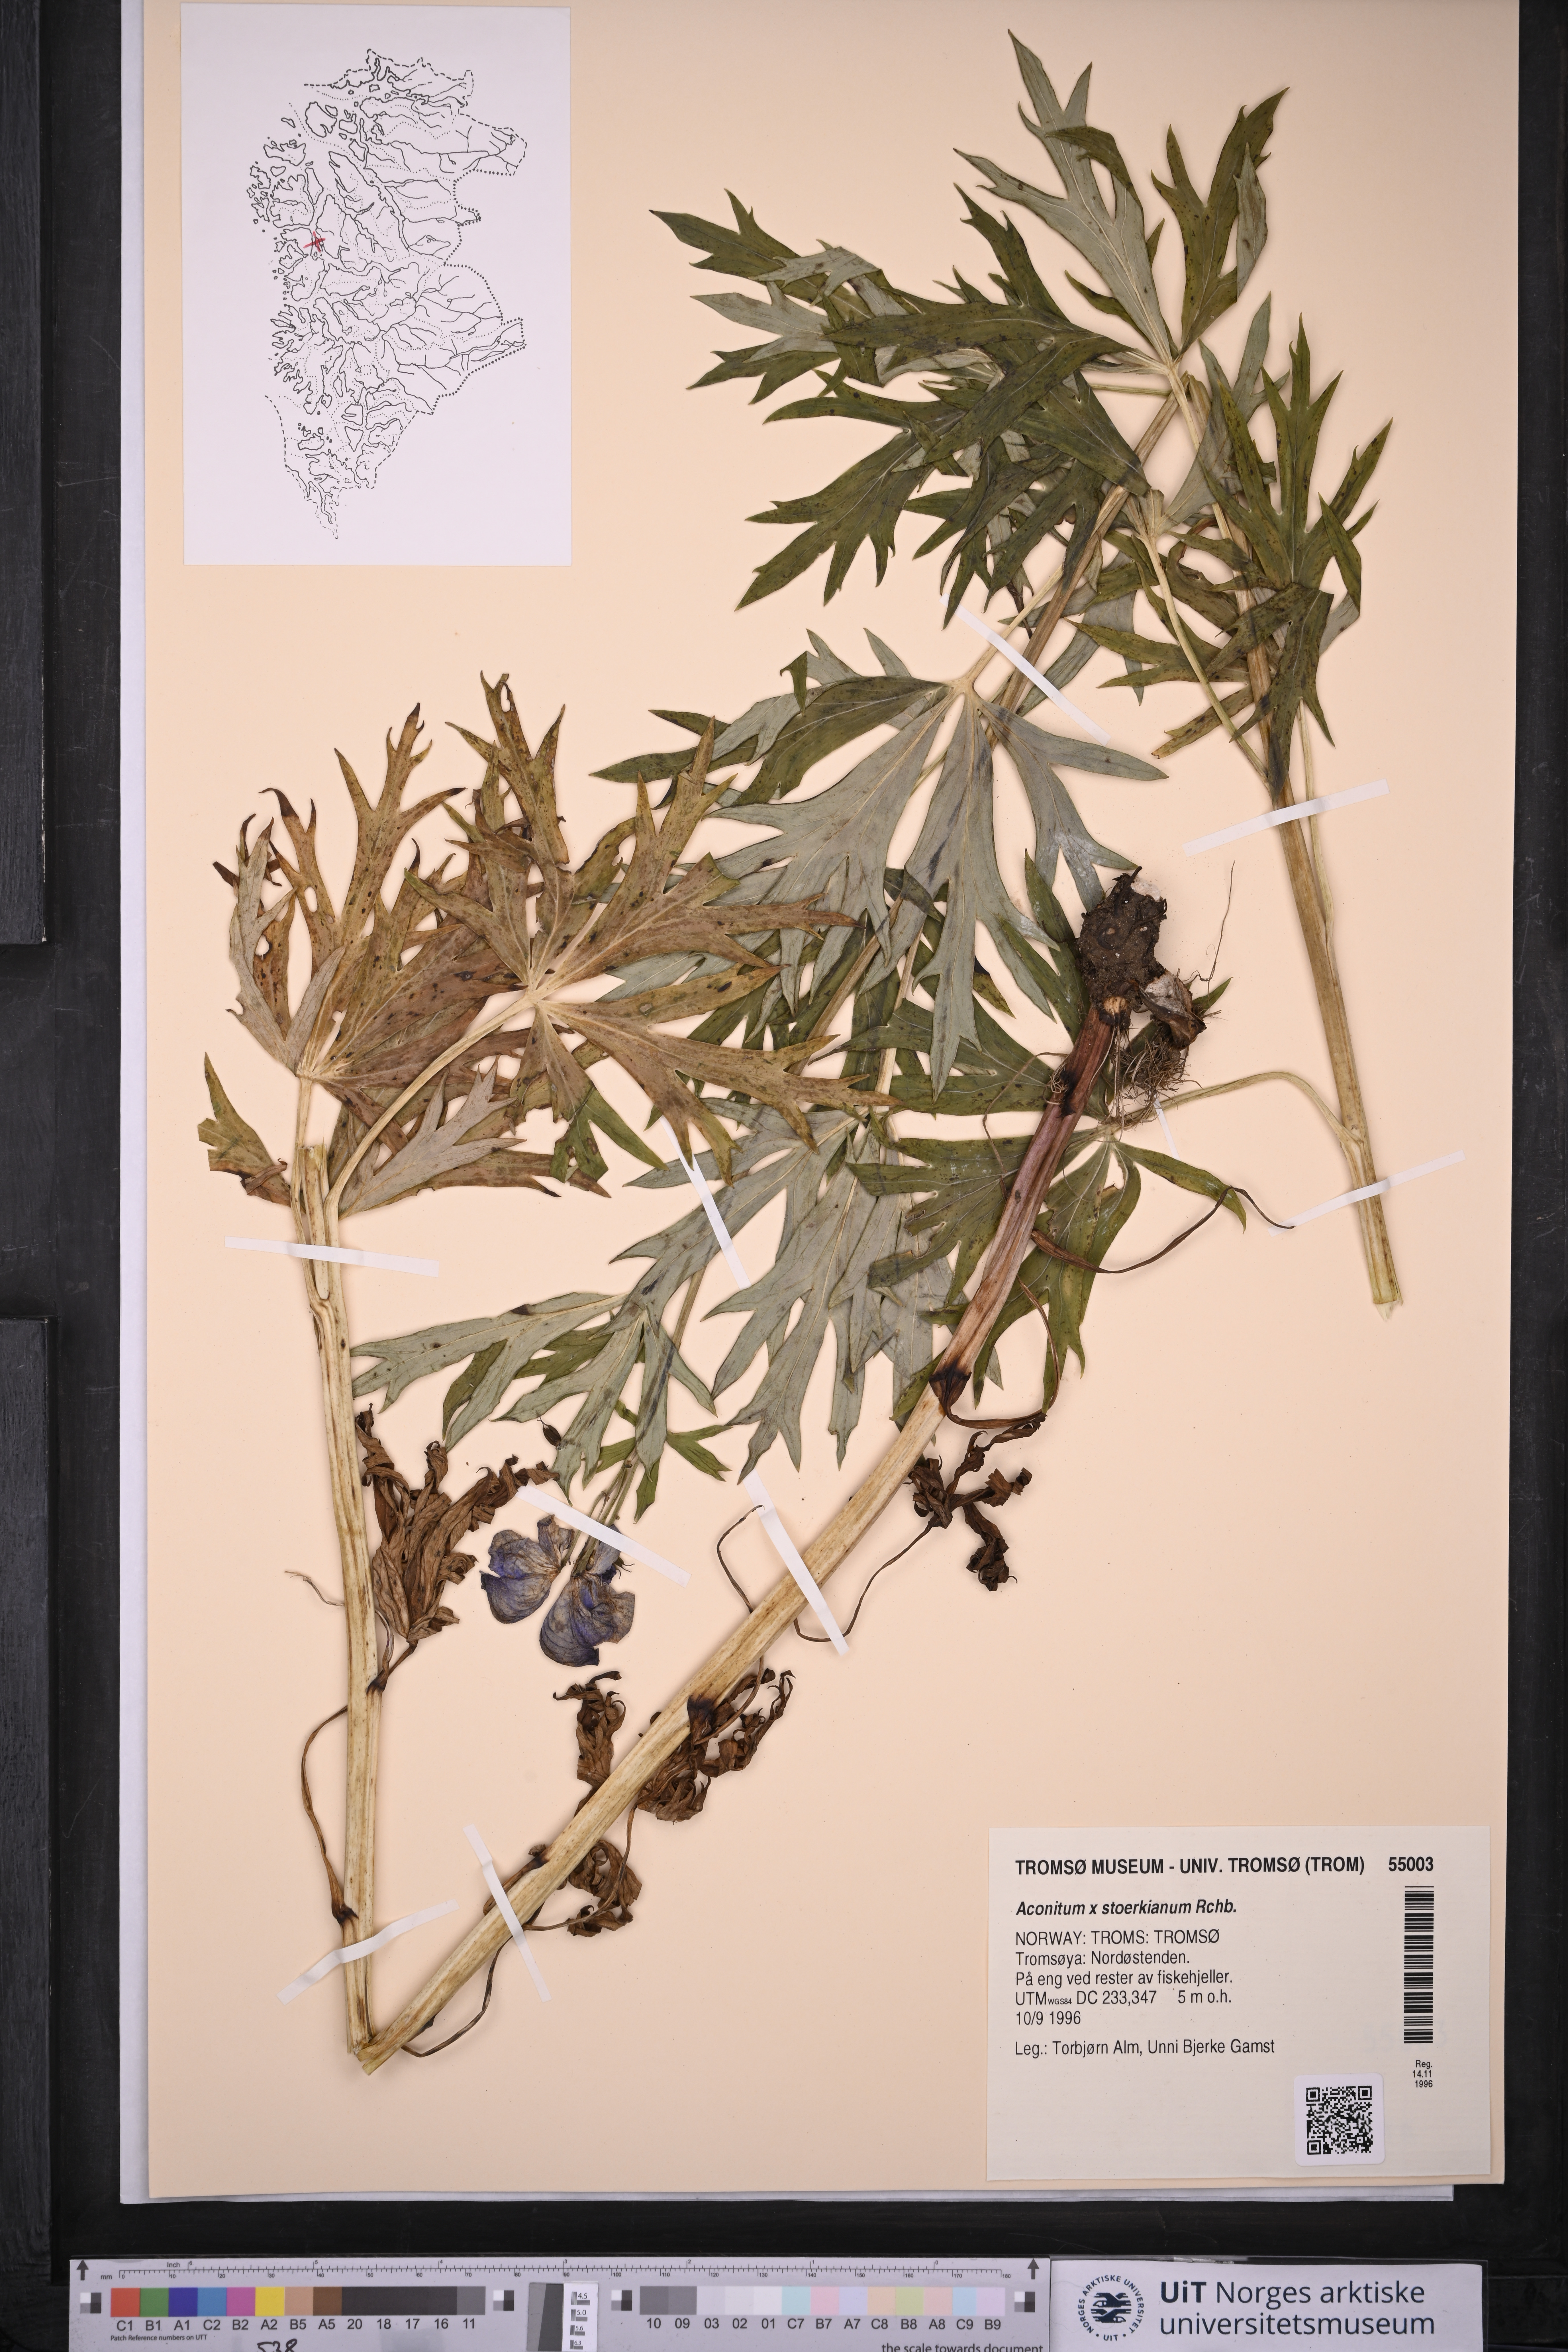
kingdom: Plantae
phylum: Tracheophyta
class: Magnoliopsida
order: Ranunculales
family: Ranunculaceae
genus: Aconitum
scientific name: Aconitum cammarum
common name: Hybrid monk's-hood
